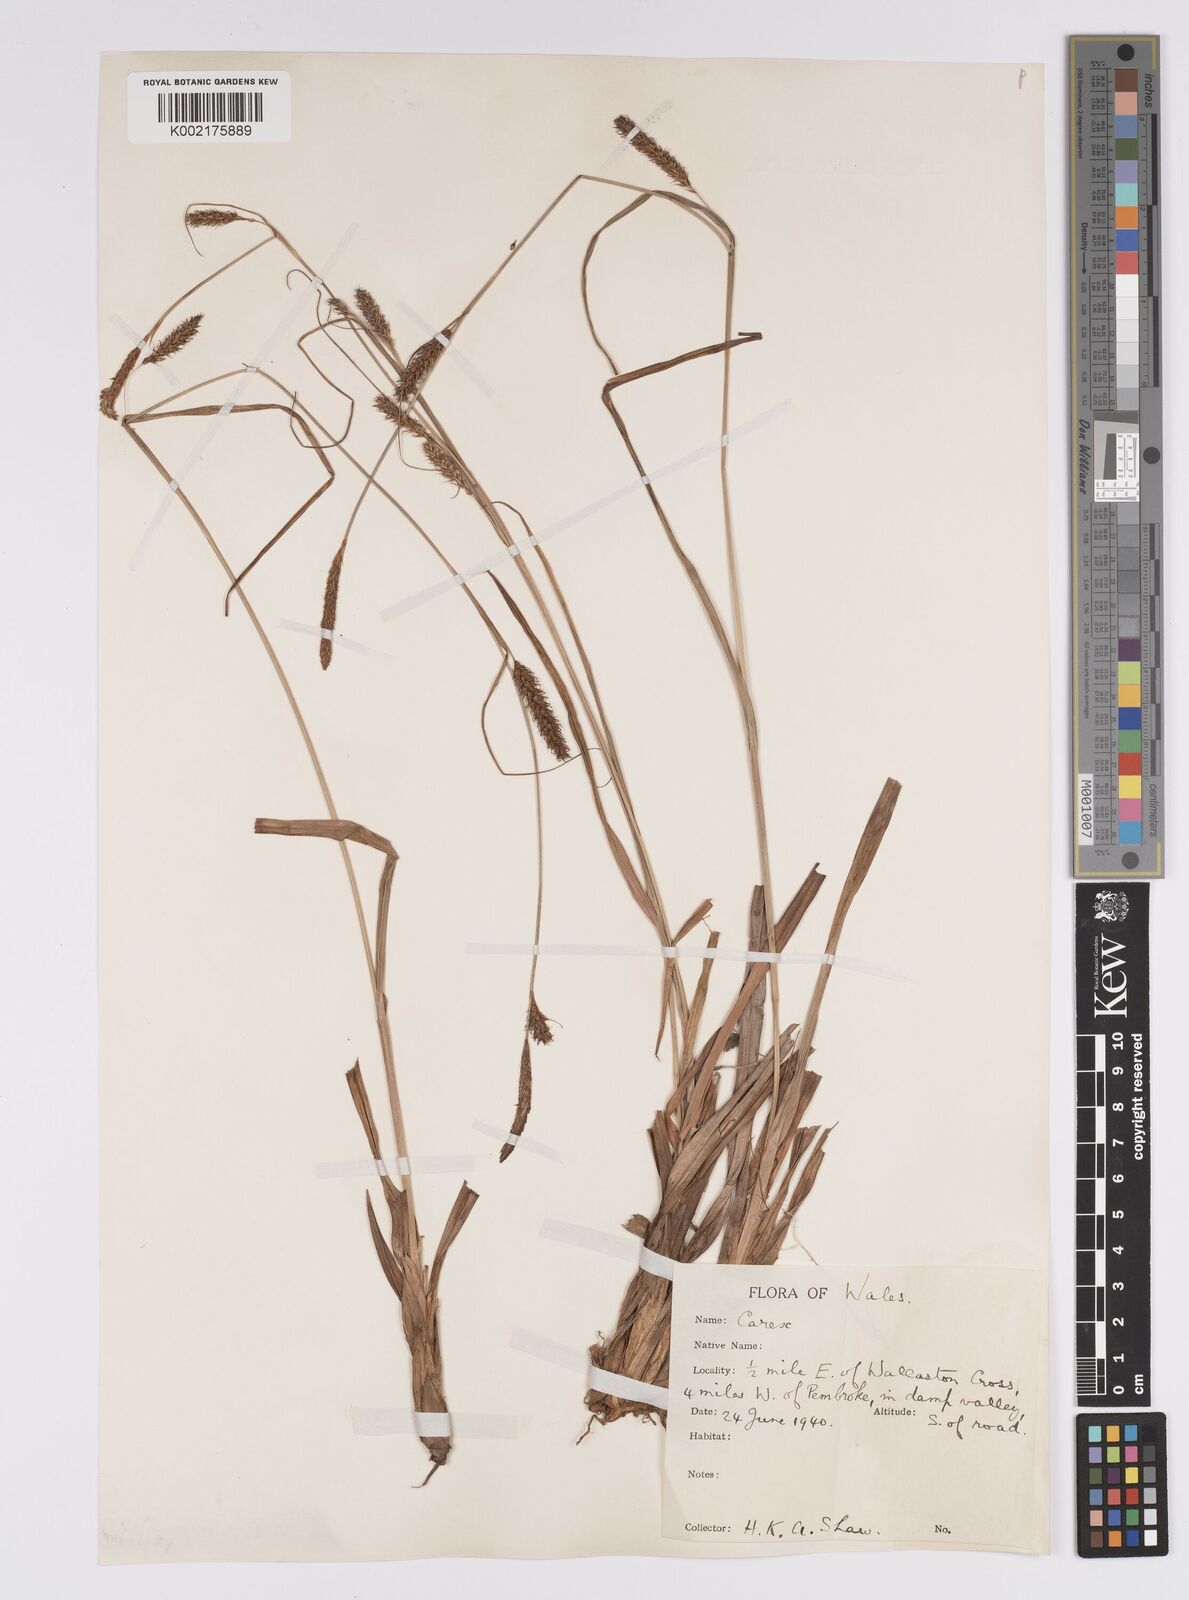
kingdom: Plantae
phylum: Tracheophyta
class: Liliopsida
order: Poales
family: Cyperaceae
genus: Carex
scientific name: Carex laevigata
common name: Smooth-stalked sedge
